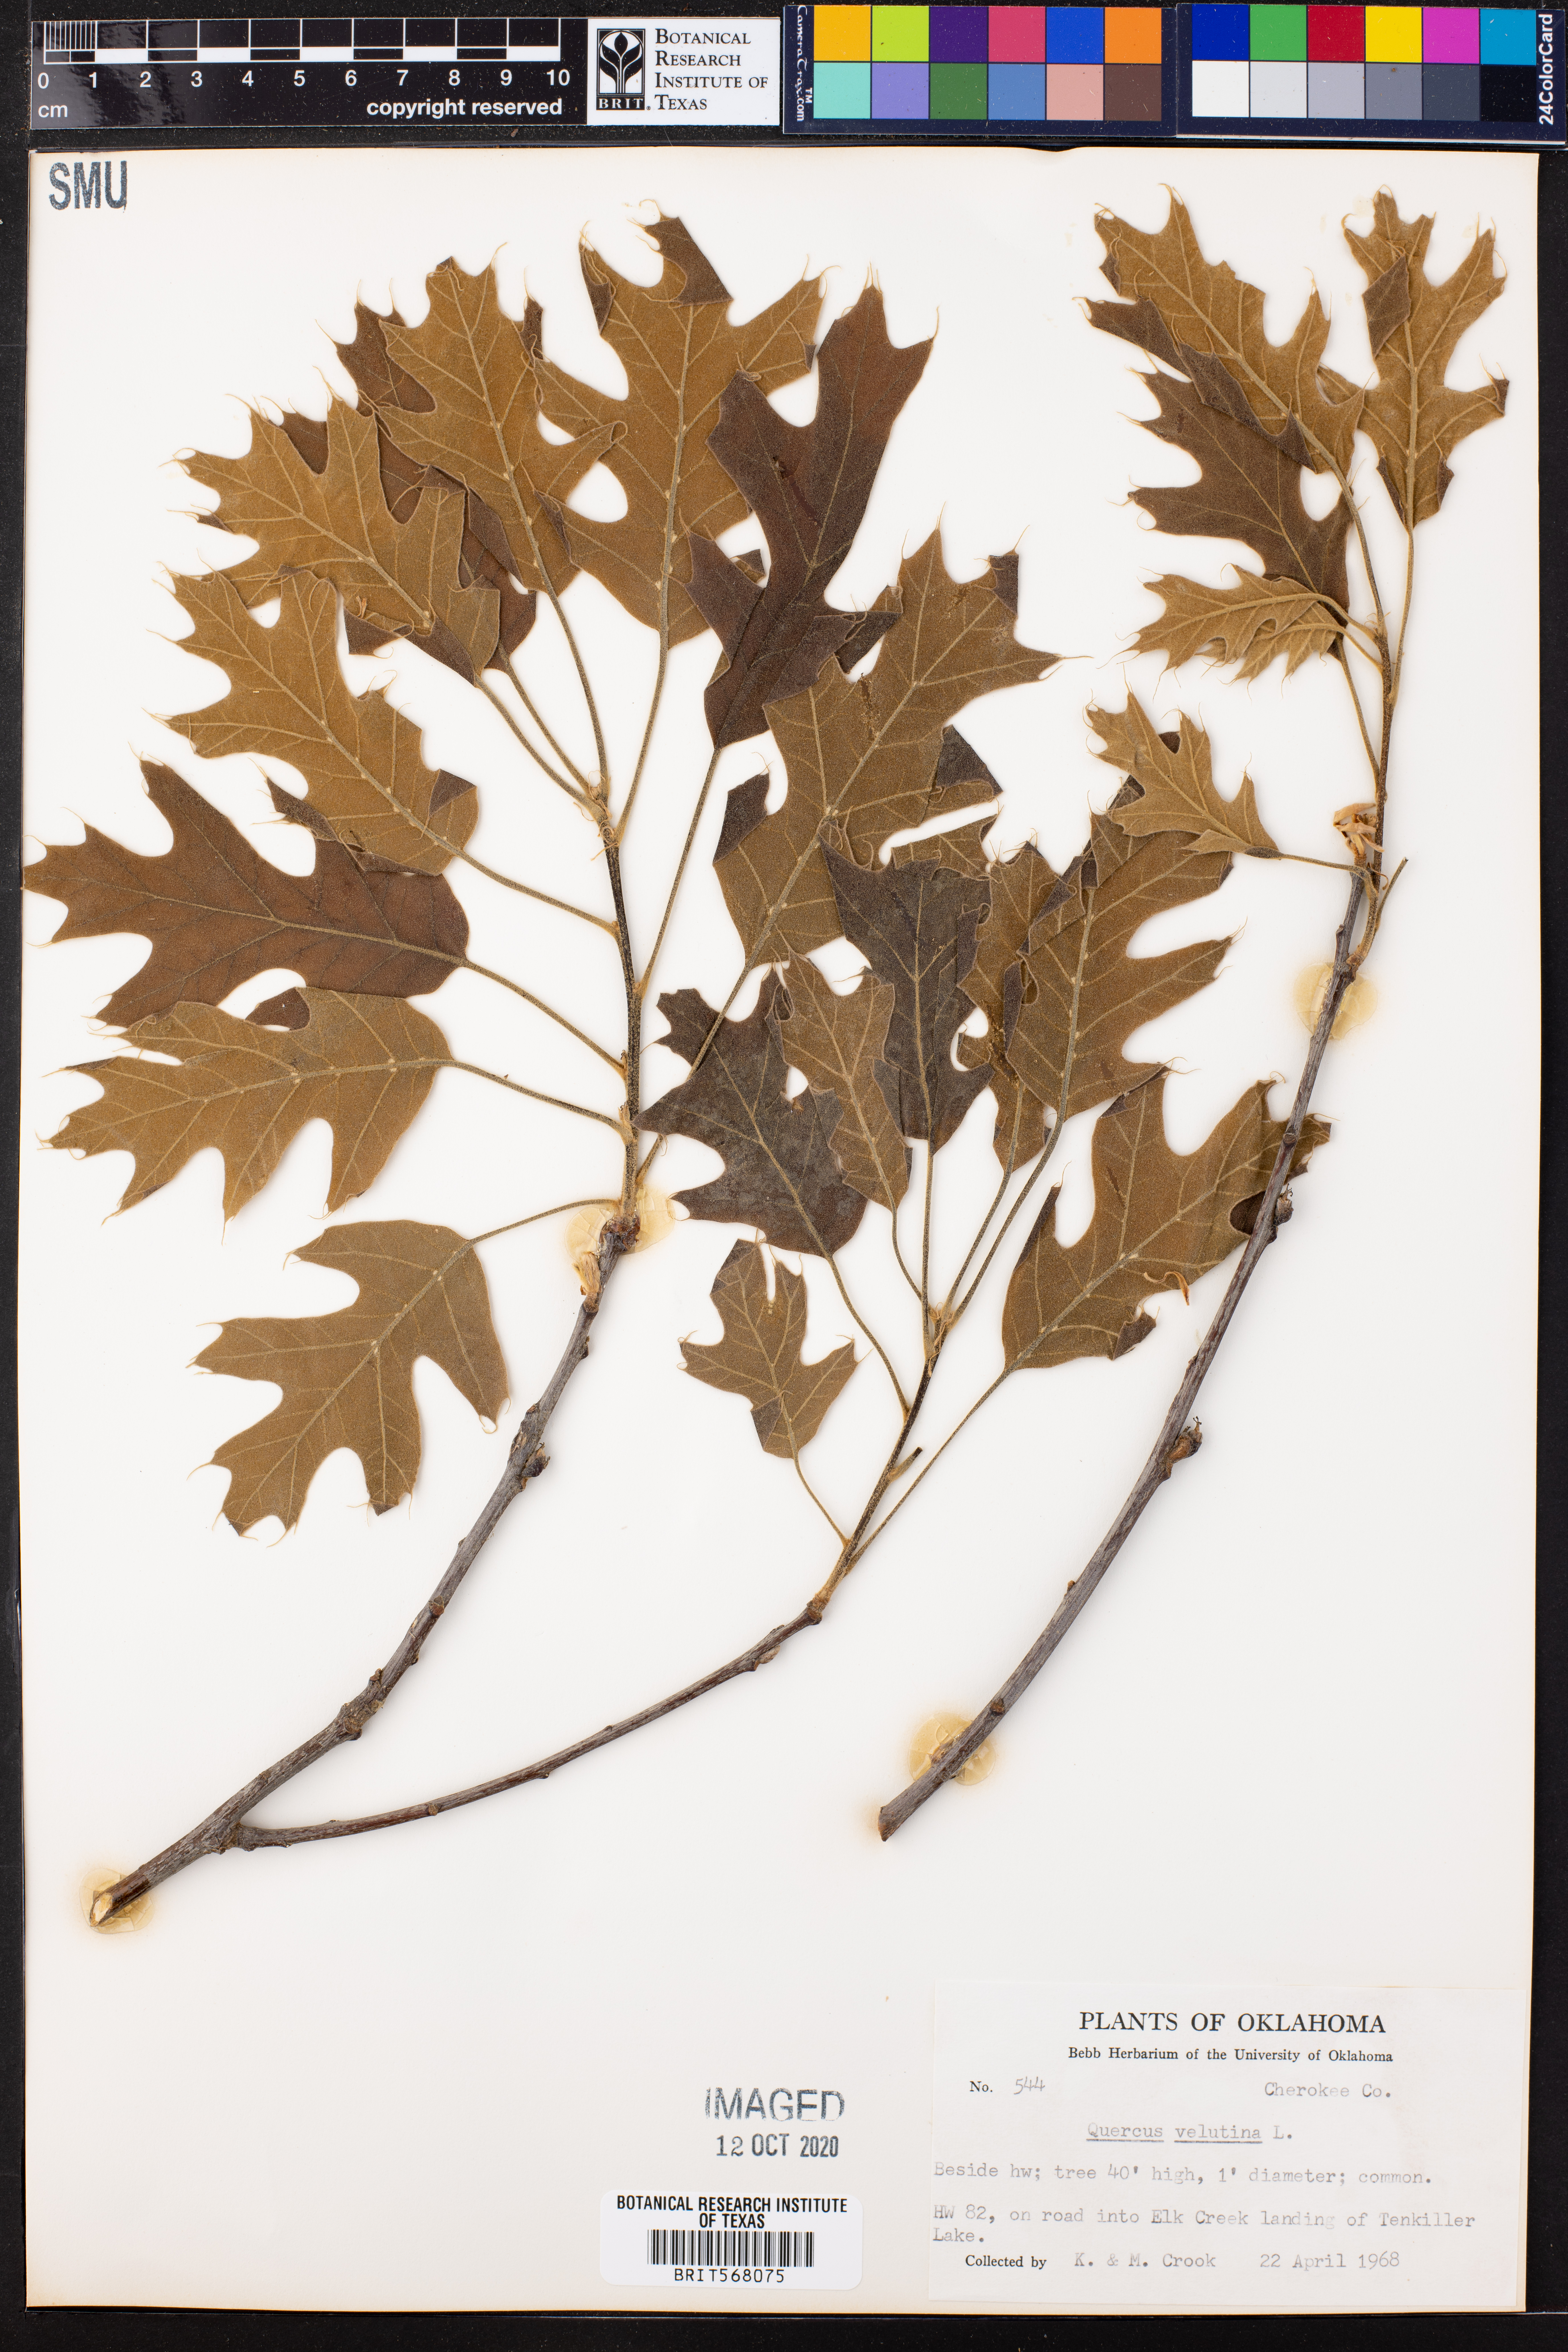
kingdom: Plantae
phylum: Tracheophyta
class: Magnoliopsida
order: Fagales
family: Fagaceae
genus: Quercus
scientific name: Quercus velutina
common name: Black oak
